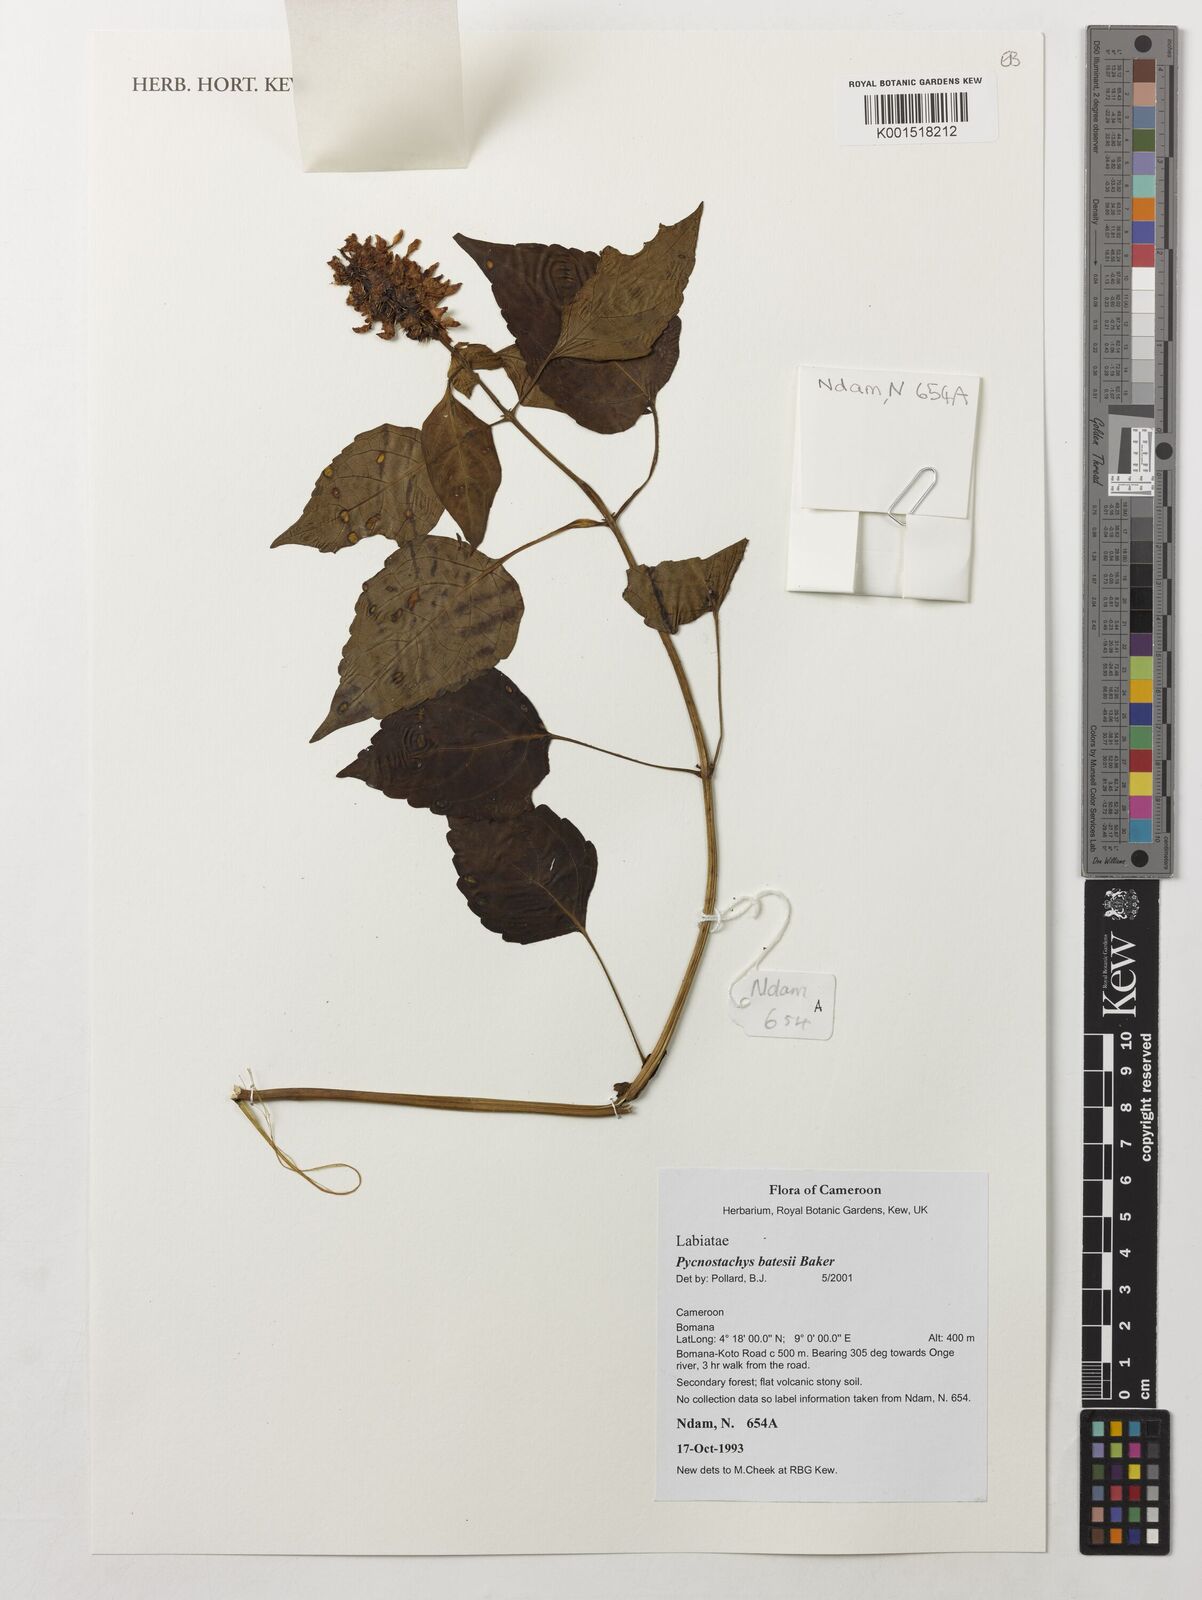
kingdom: Plantae
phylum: Tracheophyta
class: Magnoliopsida
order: Lamiales
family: Lamiaceae
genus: Coleus
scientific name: Coleus batesii
